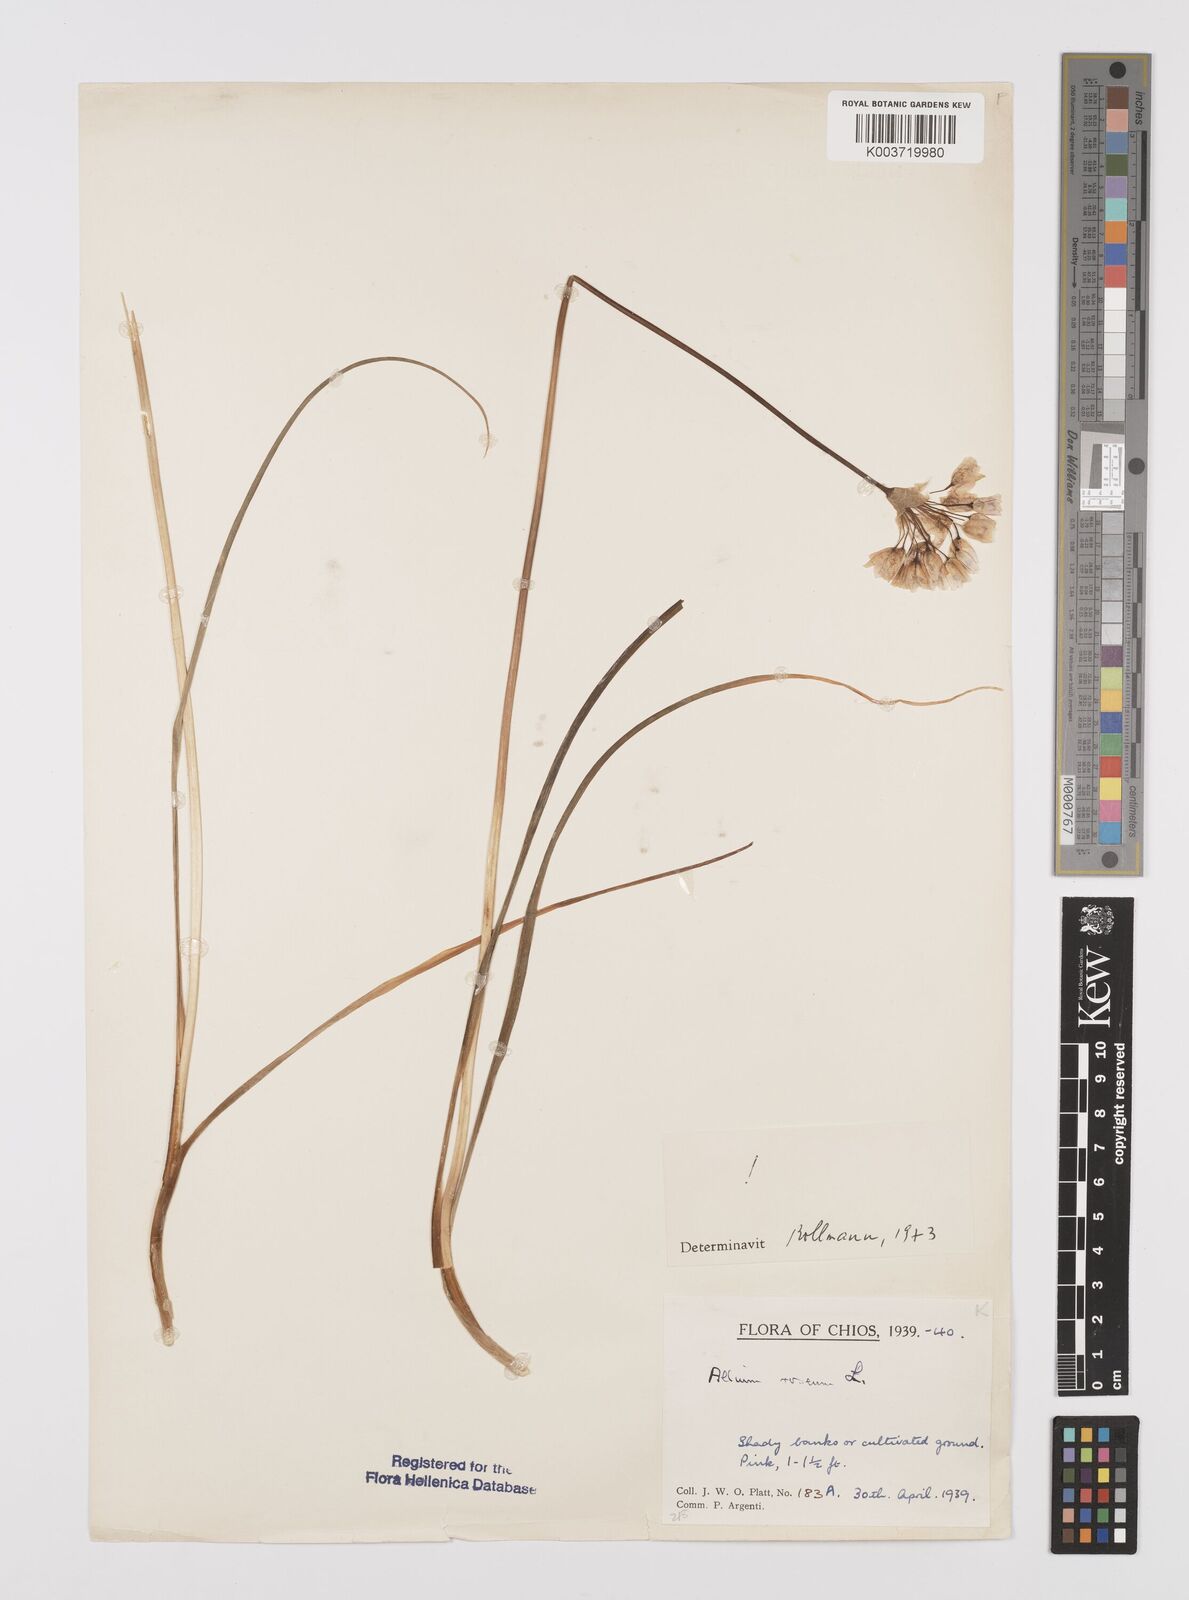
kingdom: Plantae
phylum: Tracheophyta
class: Liliopsida
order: Asparagales
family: Amaryllidaceae
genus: Allium
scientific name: Allium roseum
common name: Rosy garlic
